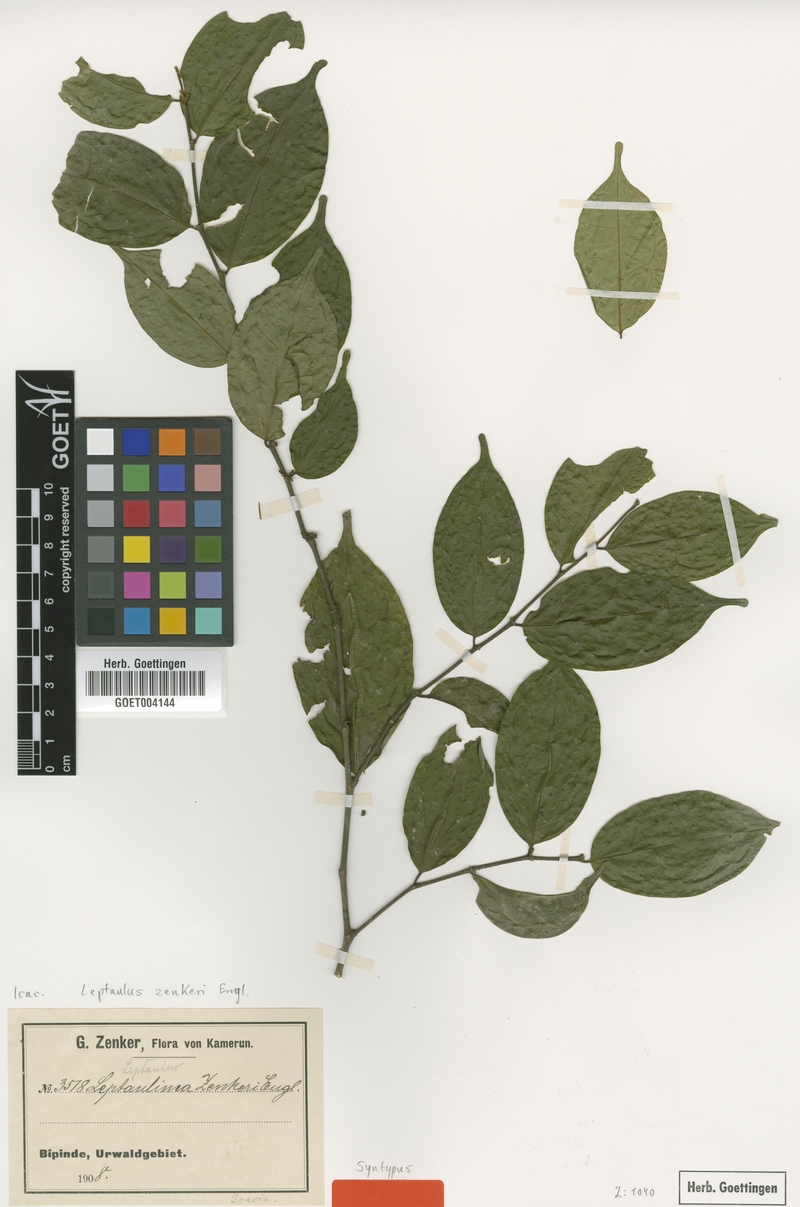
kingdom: Plantae
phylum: Tracheophyta
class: Magnoliopsida
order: Cardiopteridales
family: Cardiopteridaceae
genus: Leptaulus
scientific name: Leptaulus congolanus
